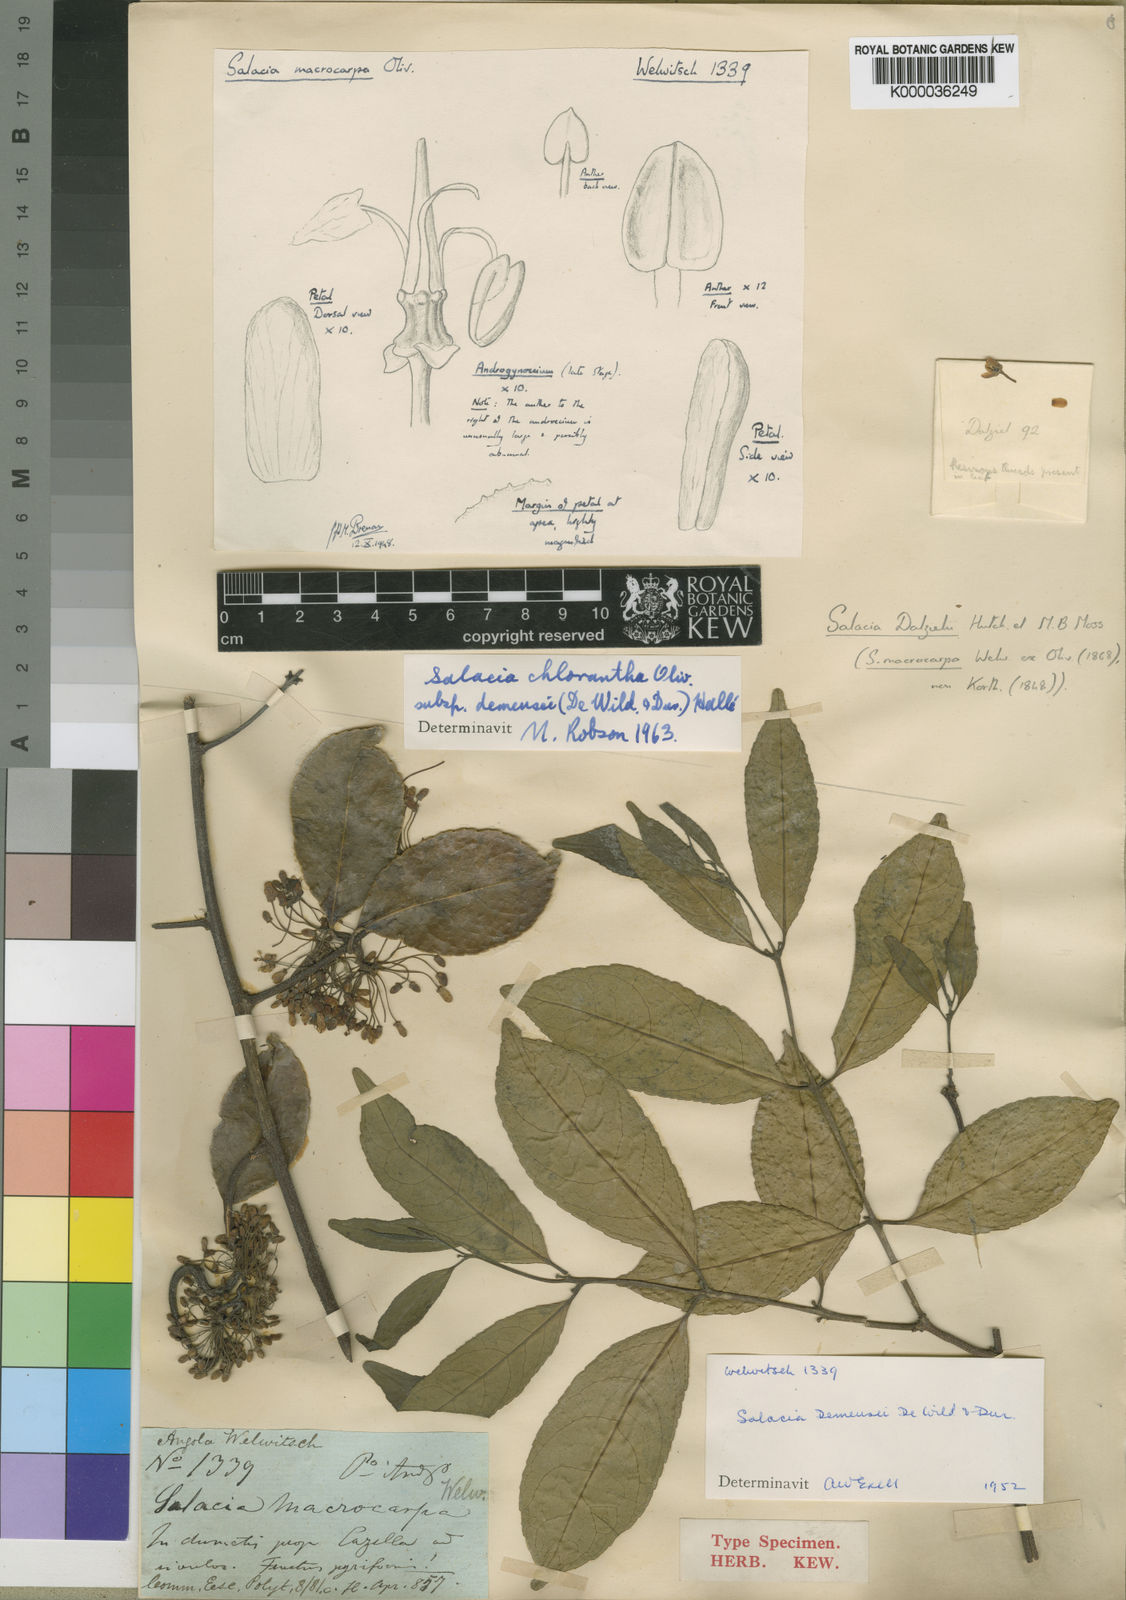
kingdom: Plantae
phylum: Tracheophyta
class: Magnoliopsida
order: Celastrales
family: Celastraceae
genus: Salacia
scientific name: Salacia chlorantha
